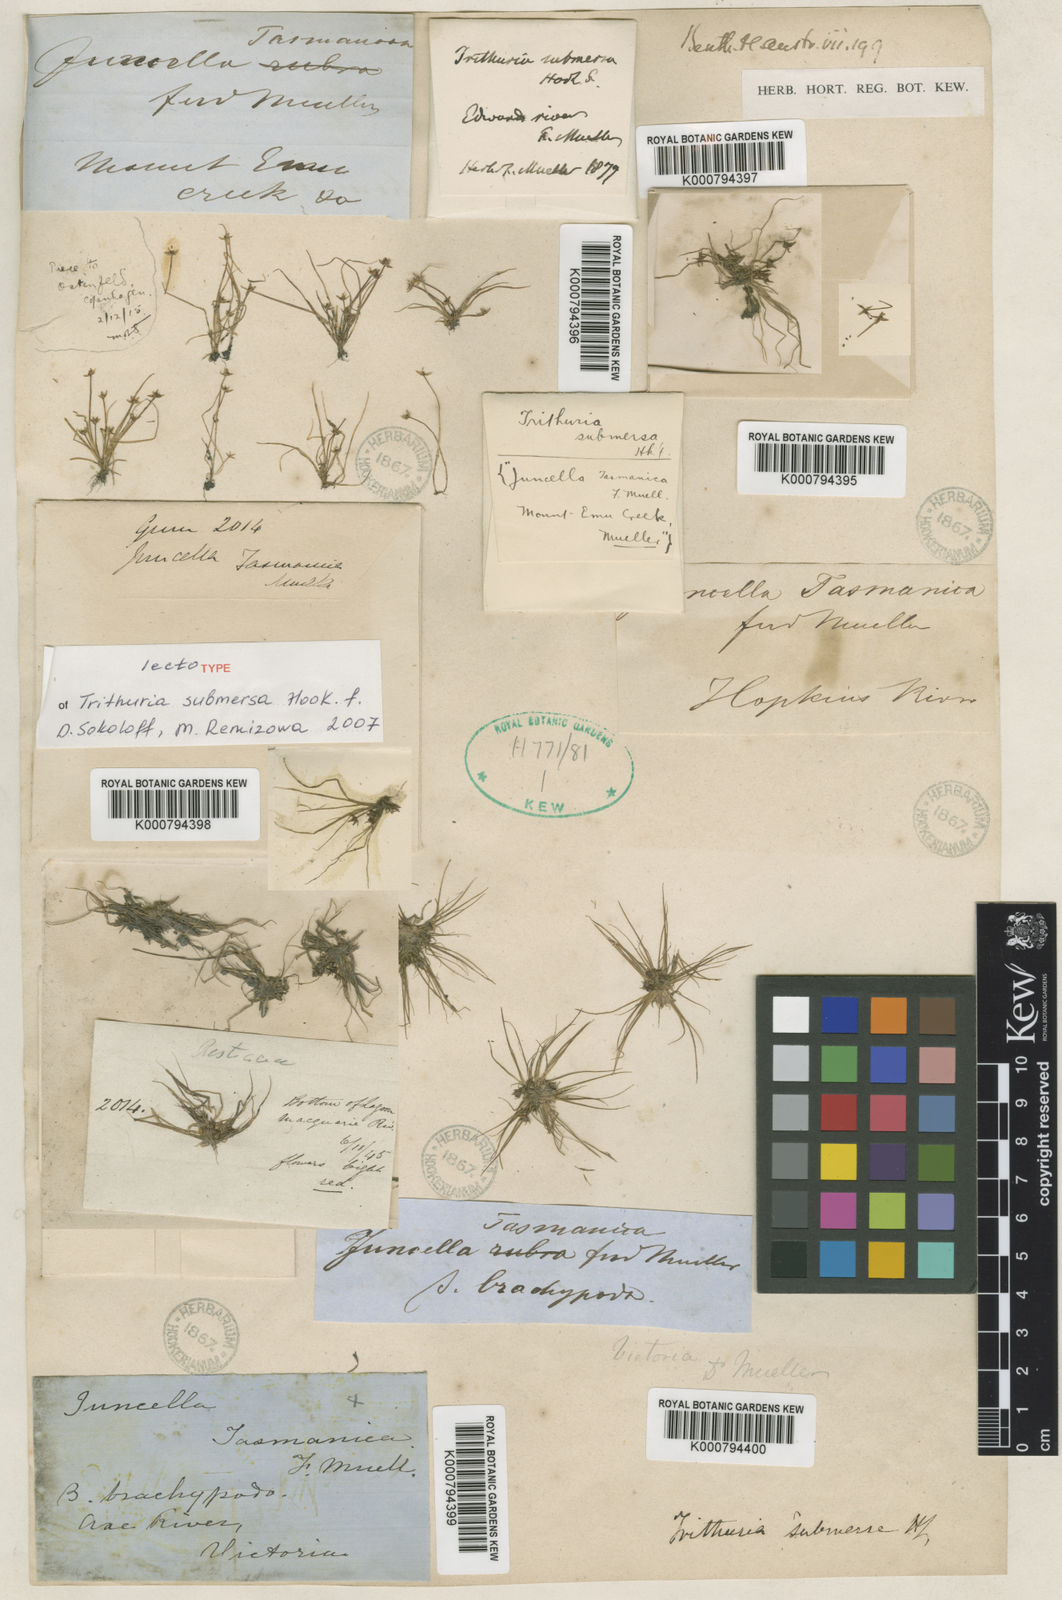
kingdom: Plantae
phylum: Tracheophyta
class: Magnoliopsida
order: Nymphaeales
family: Hydatellaceae
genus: Trithuria
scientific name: Trithuria submersa
